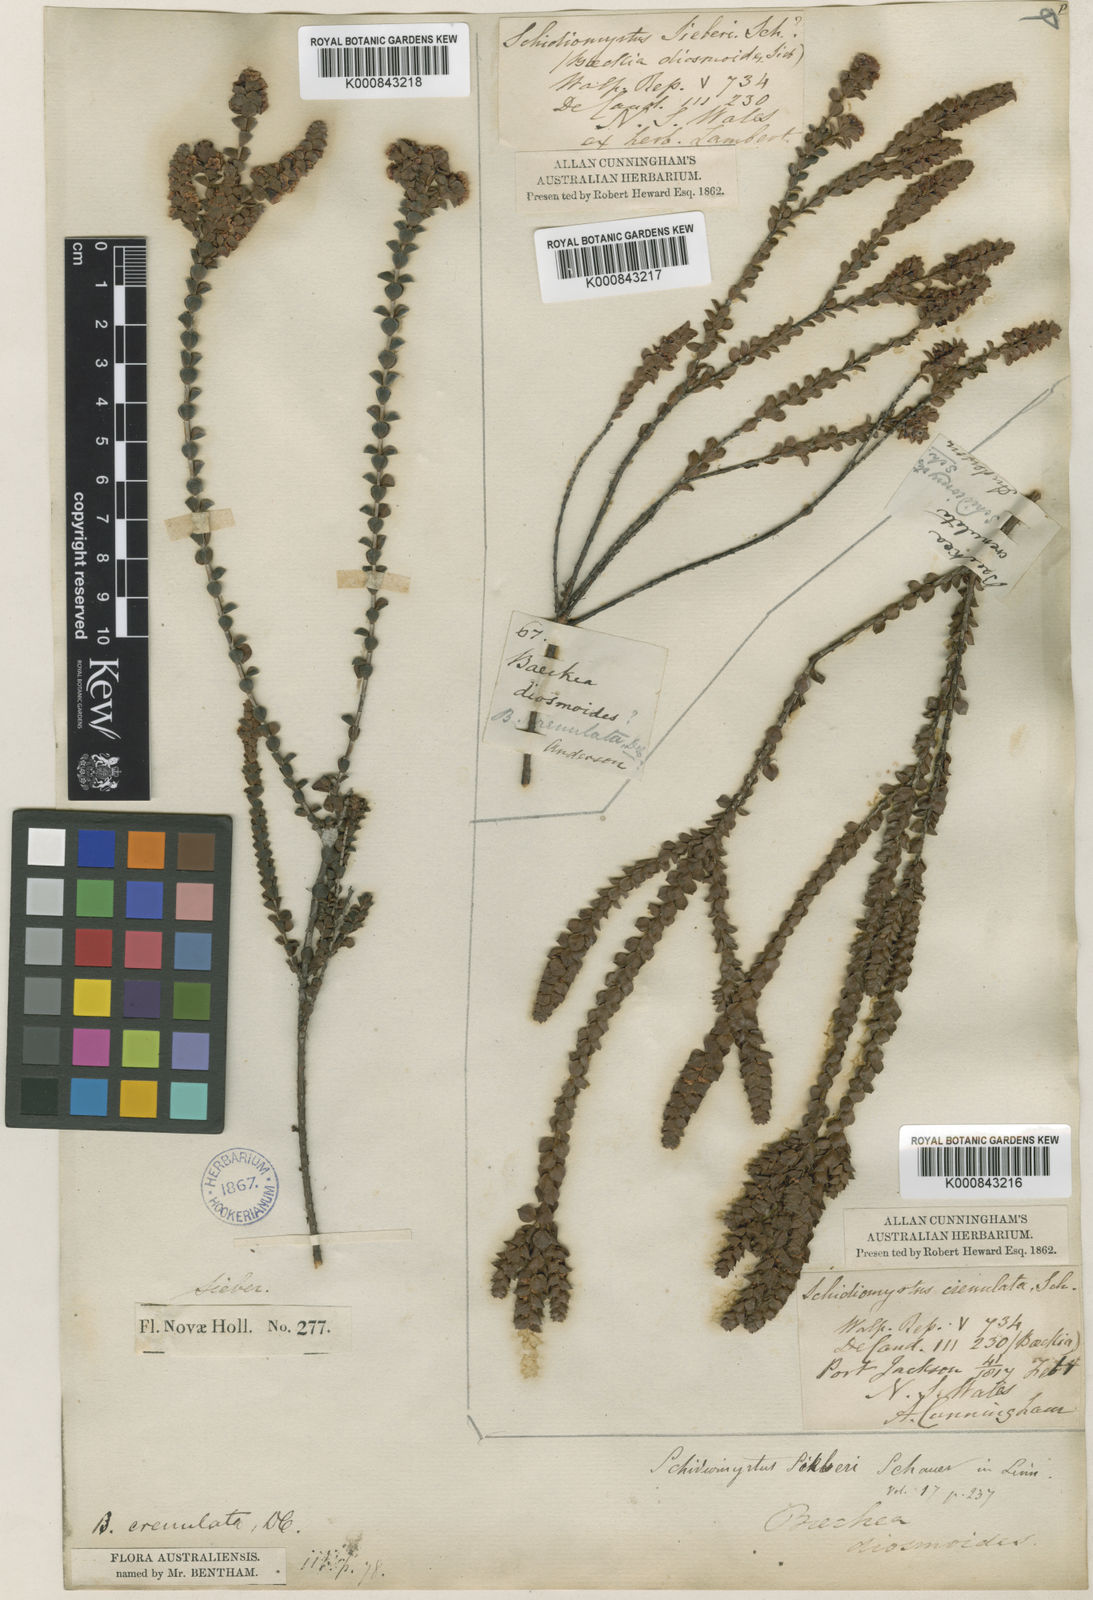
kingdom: Plantae
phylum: Tracheophyta
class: Magnoliopsida
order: Myrtales
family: Myrtaceae
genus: Sannantha
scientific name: Sannantha crenulata
